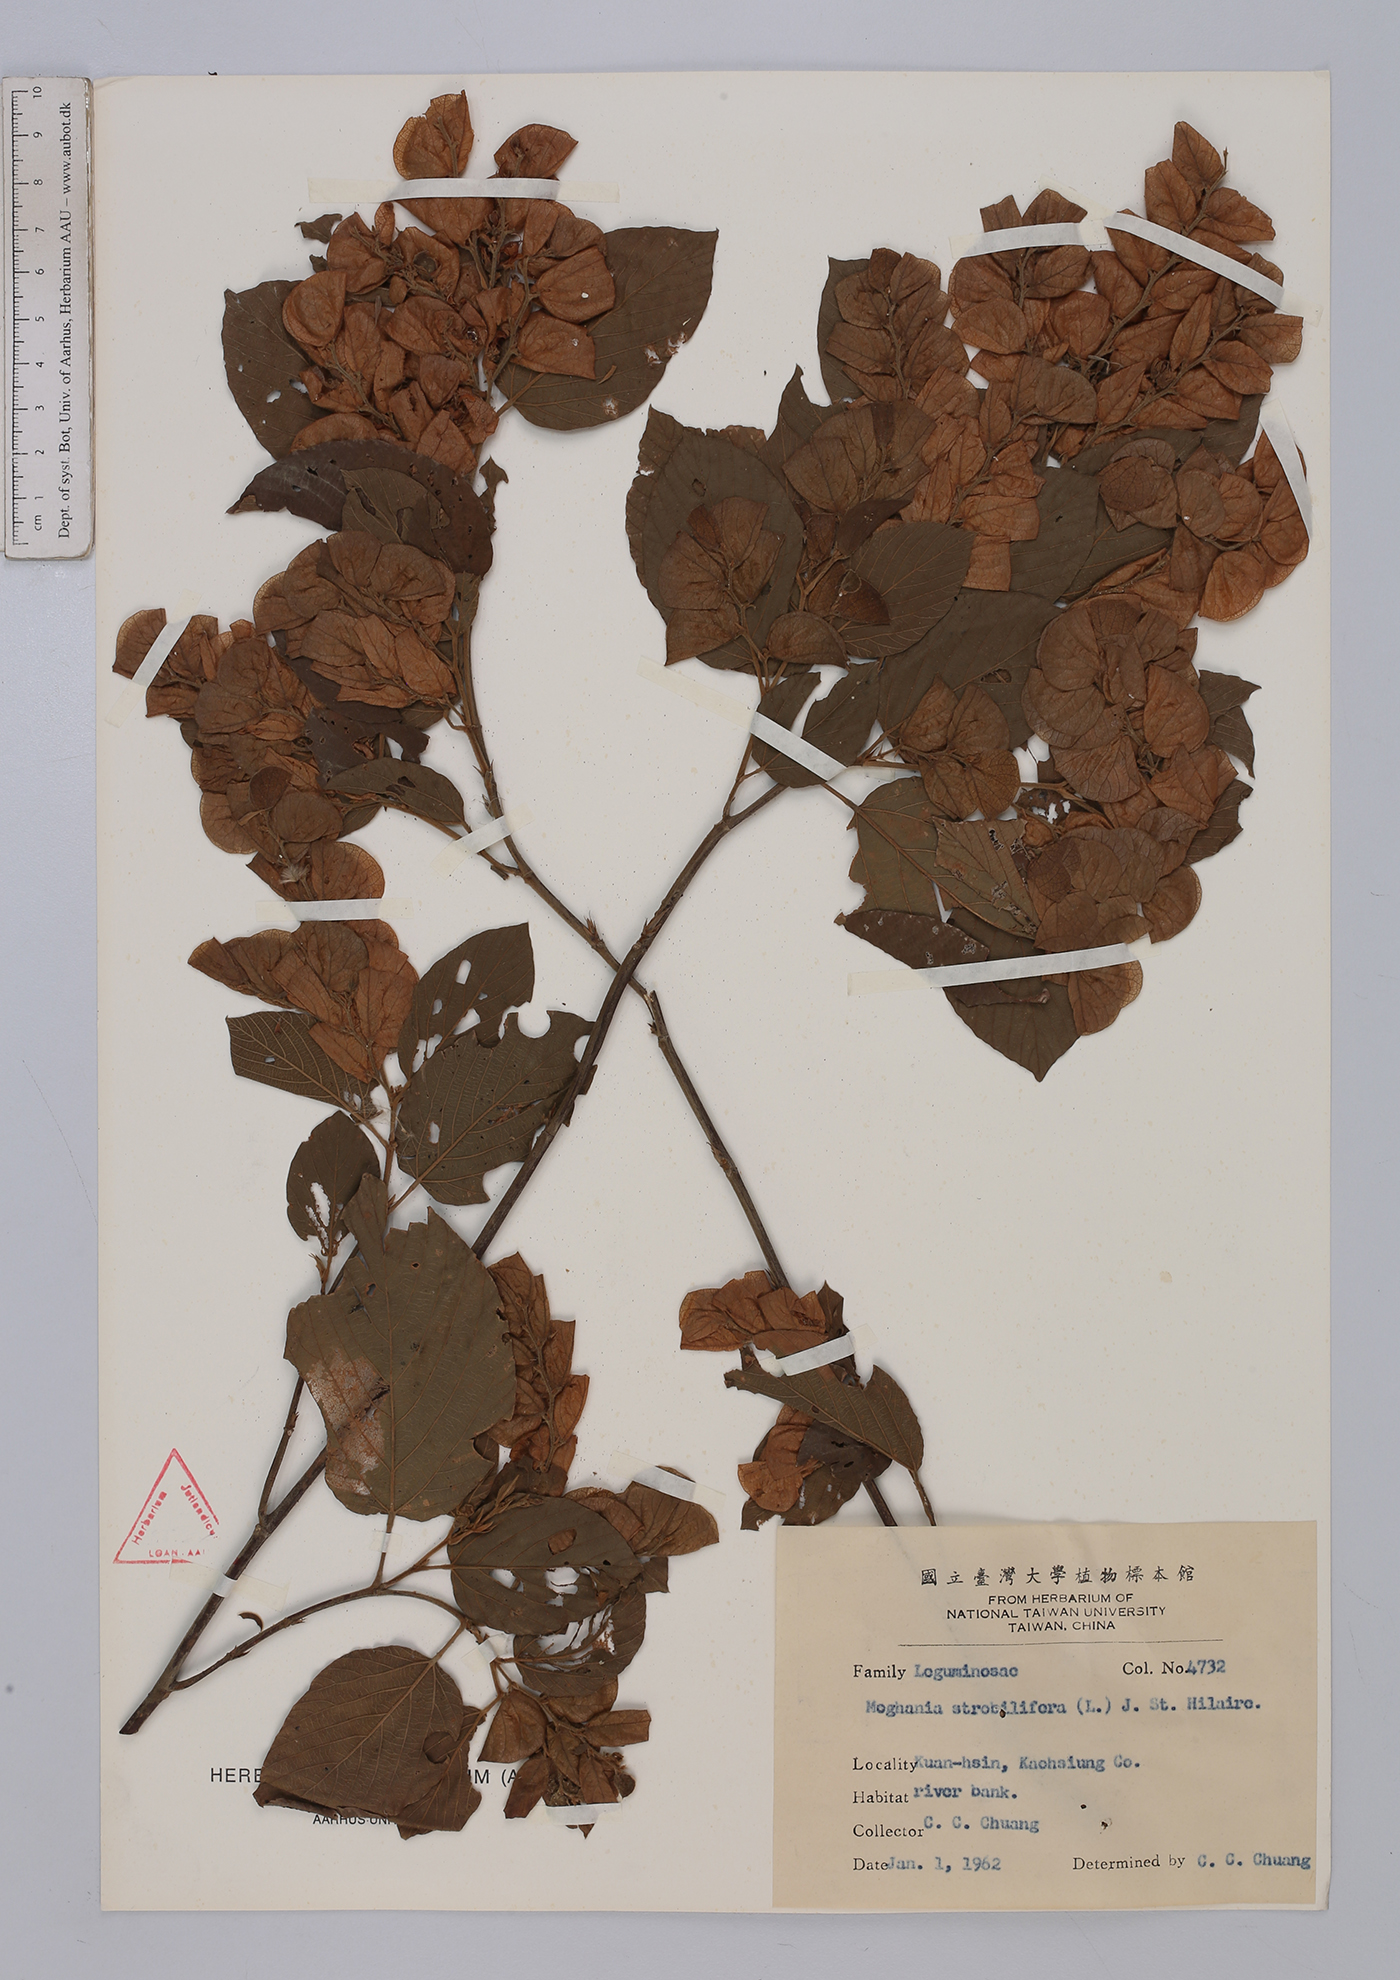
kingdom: Plantae
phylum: Tracheophyta
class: Magnoliopsida
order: Fabales
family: Fabaceae
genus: Flemingia
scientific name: Flemingia strobilifera
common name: Wild hops
